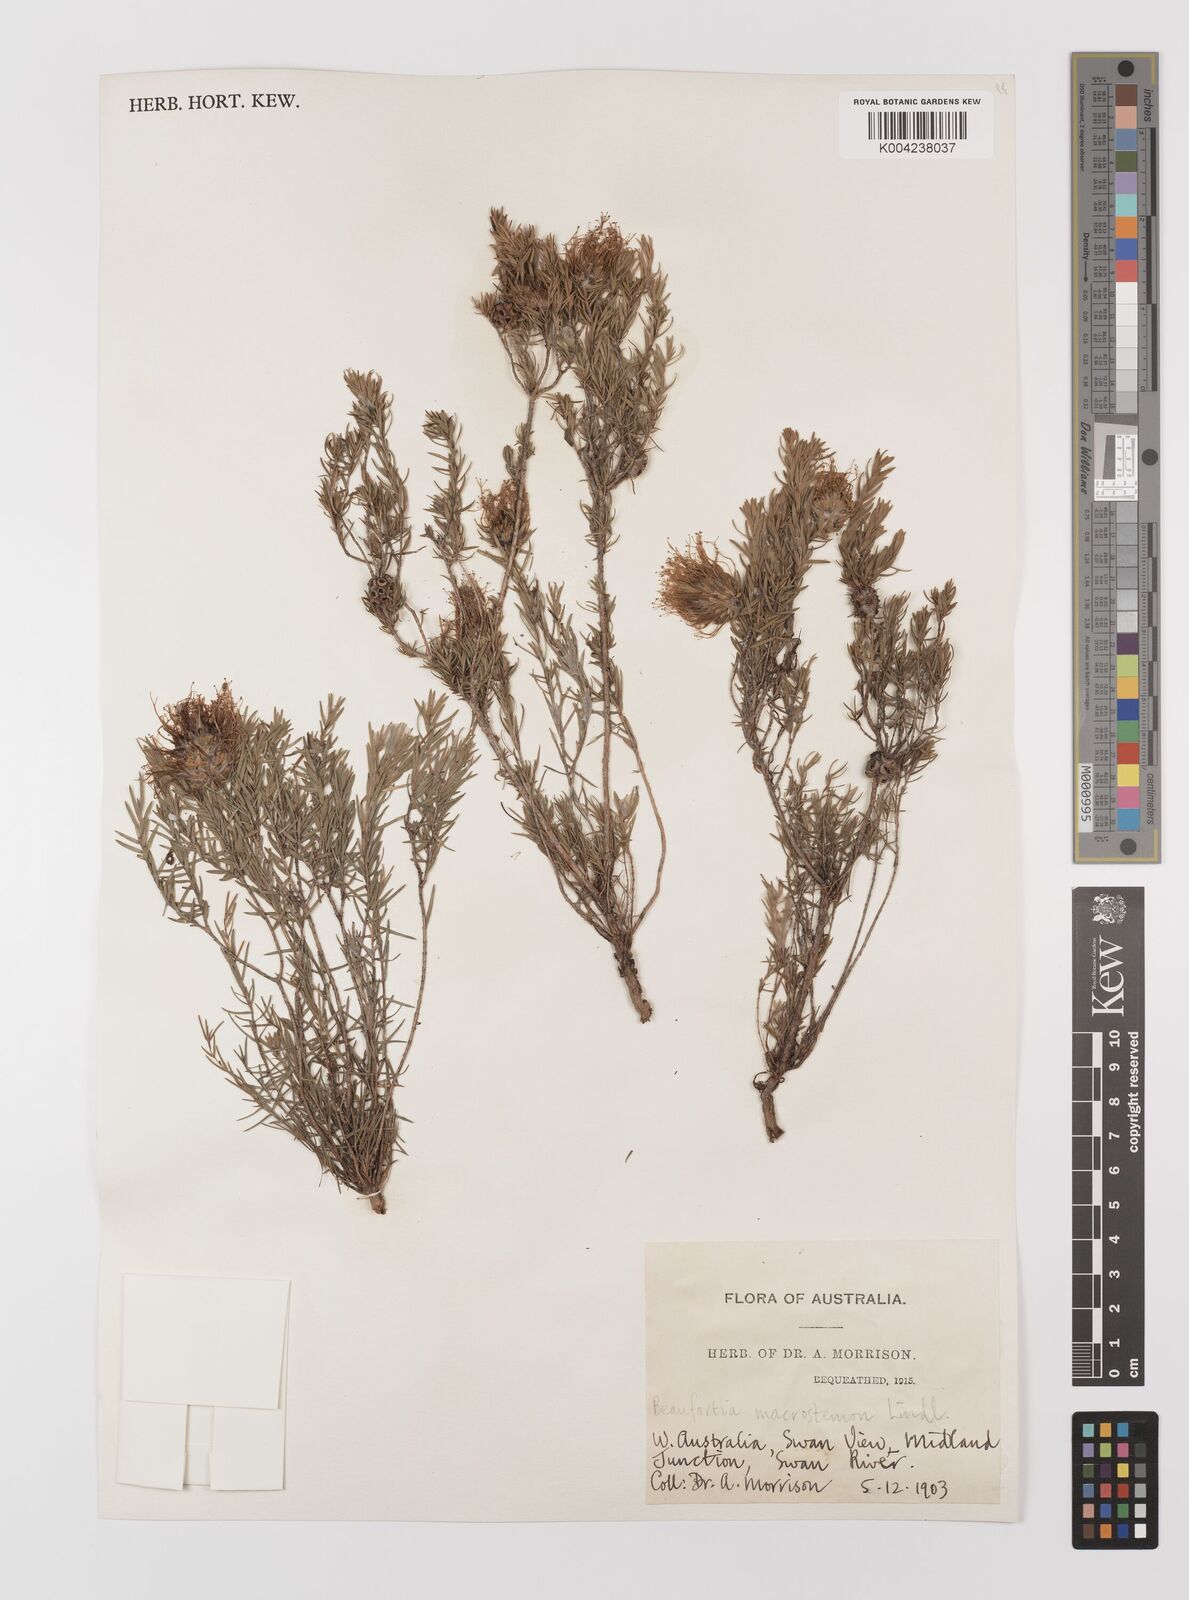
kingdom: Plantae
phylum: Tracheophyta
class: Magnoliopsida
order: Myrtales
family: Myrtaceae
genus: Melaleuca
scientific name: Melaleuca macrostemon
